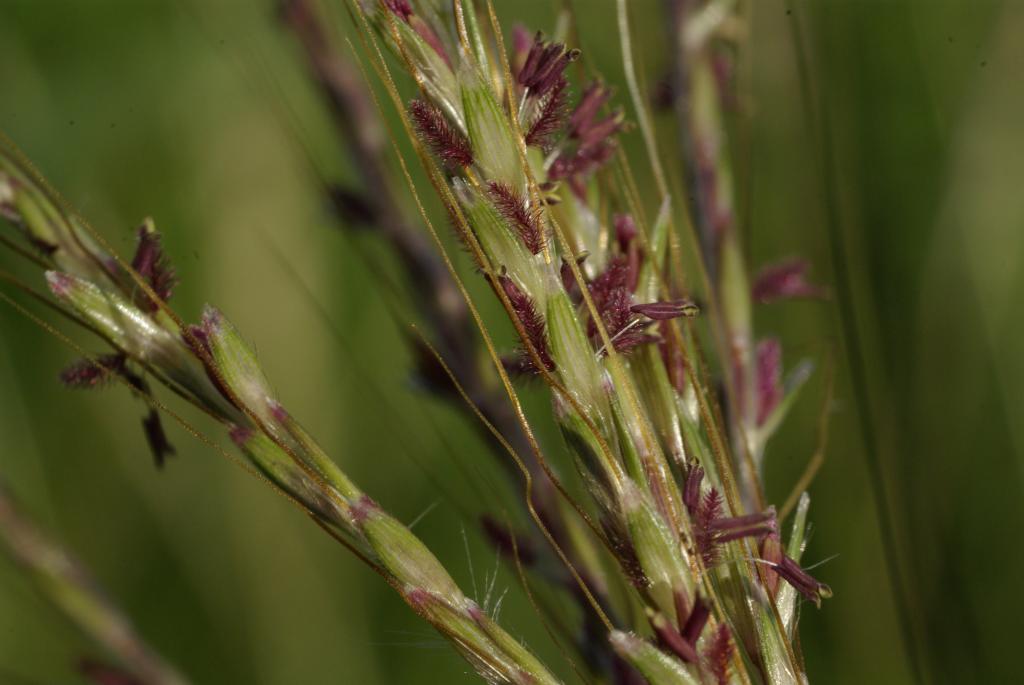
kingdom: Plantae
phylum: Tracheophyta
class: Liliopsida
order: Poales
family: Poaceae
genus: Bothriochloa
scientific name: Bothriochloa ischaemum
